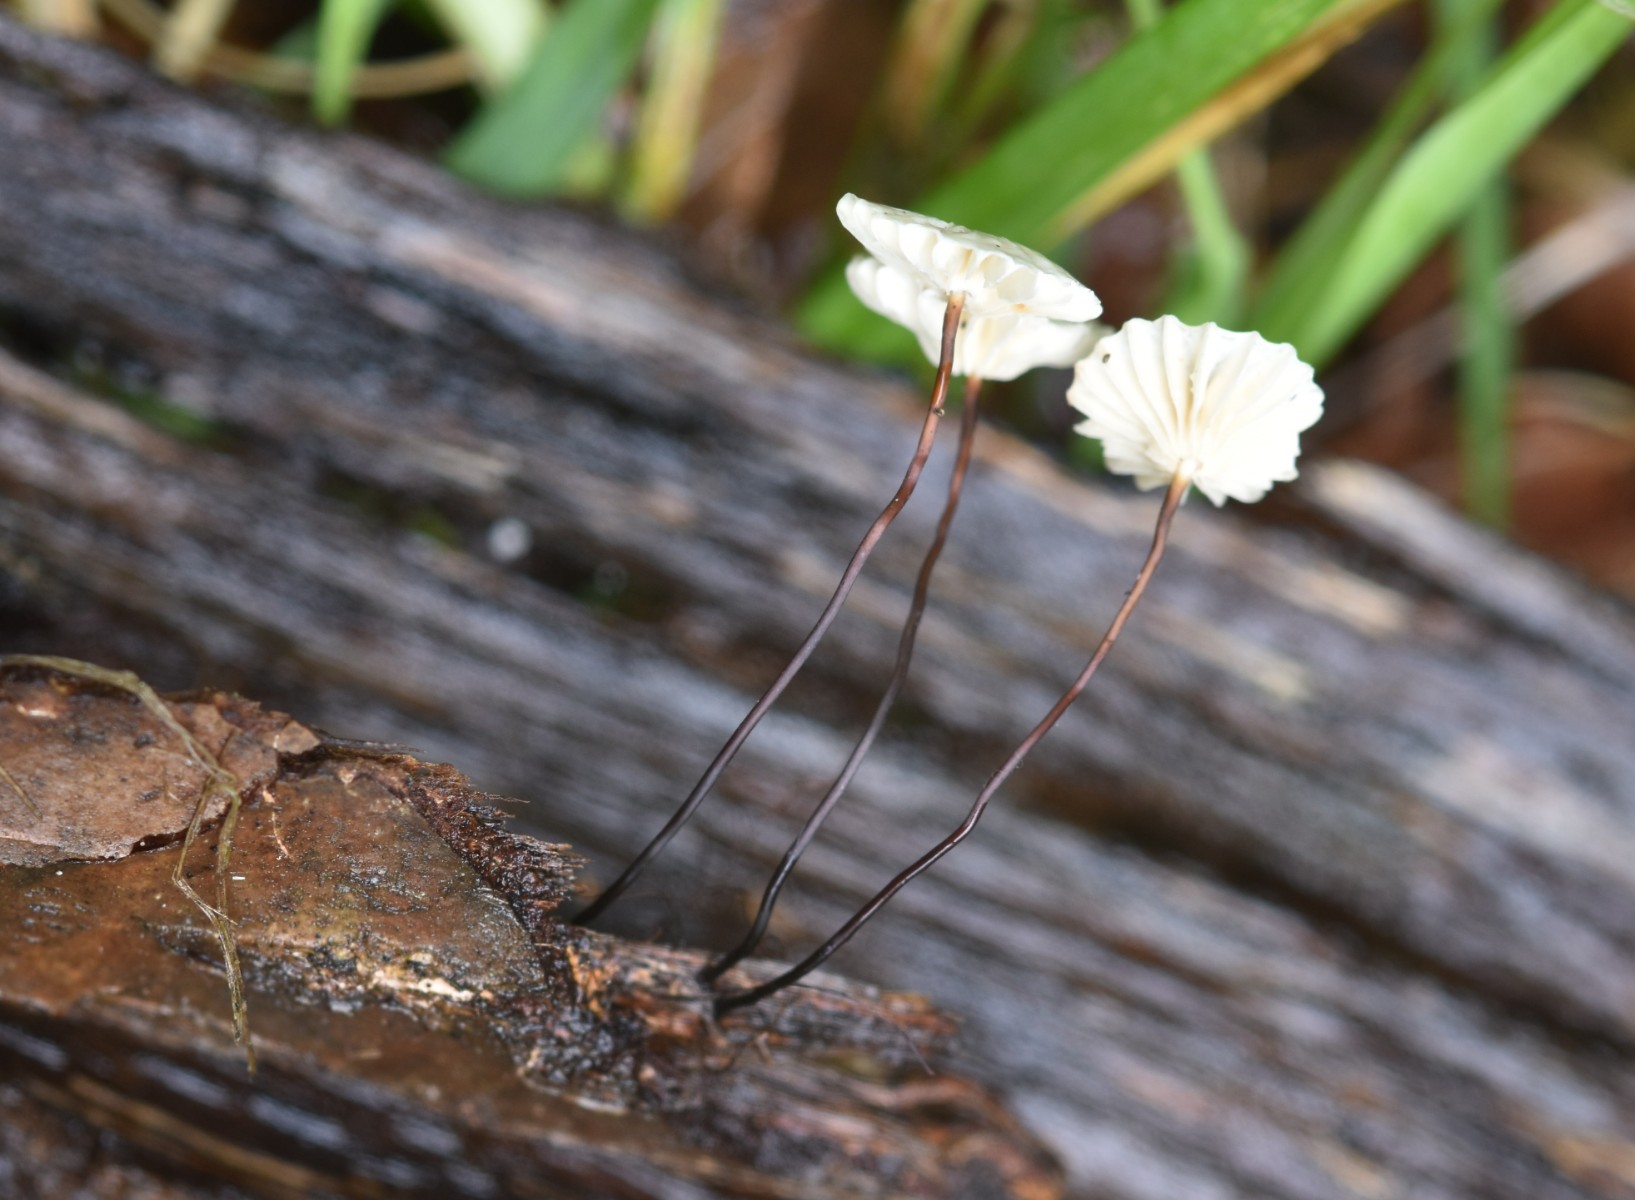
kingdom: Fungi
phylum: Basidiomycota
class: Agaricomycetes
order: Agaricales
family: Marasmiaceae
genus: Marasmius
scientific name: Marasmius rotula
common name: hjul-bruskhat
